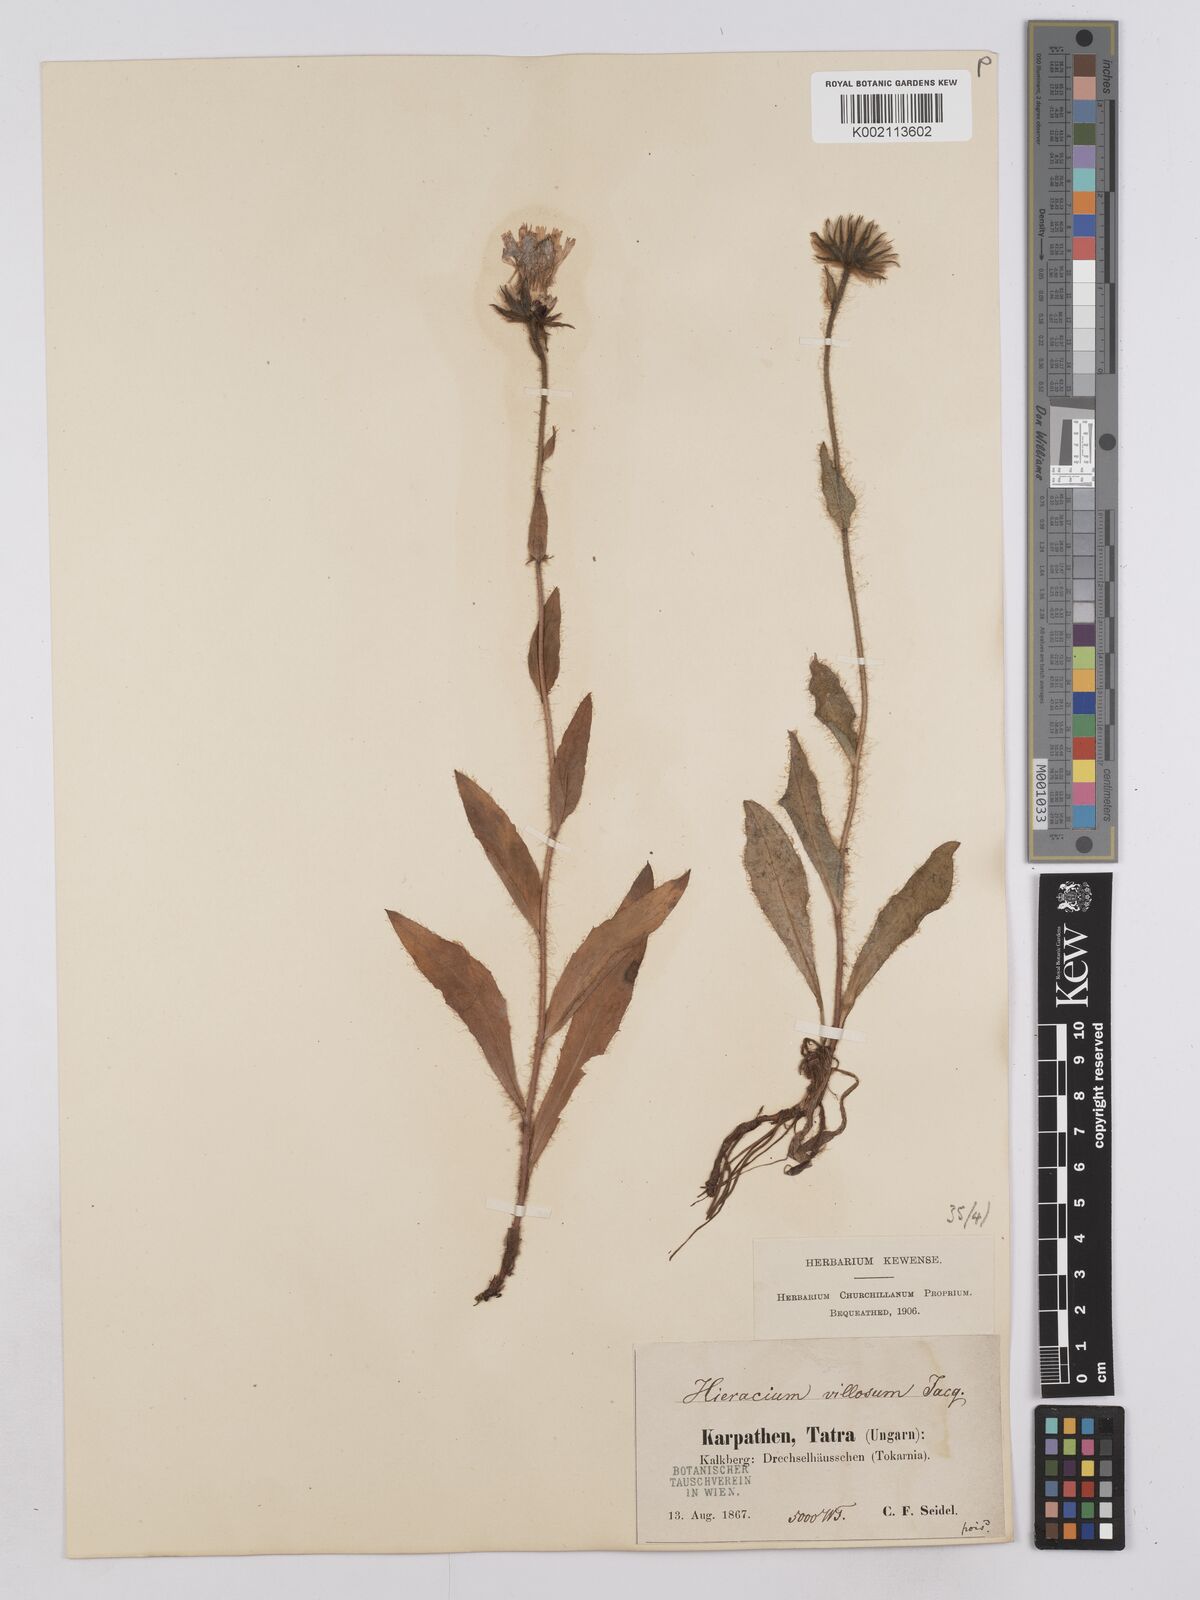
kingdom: Plantae
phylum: Tracheophyta
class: Magnoliopsida
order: Asterales
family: Asteraceae
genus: Hieracium
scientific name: Hieracium villosum
